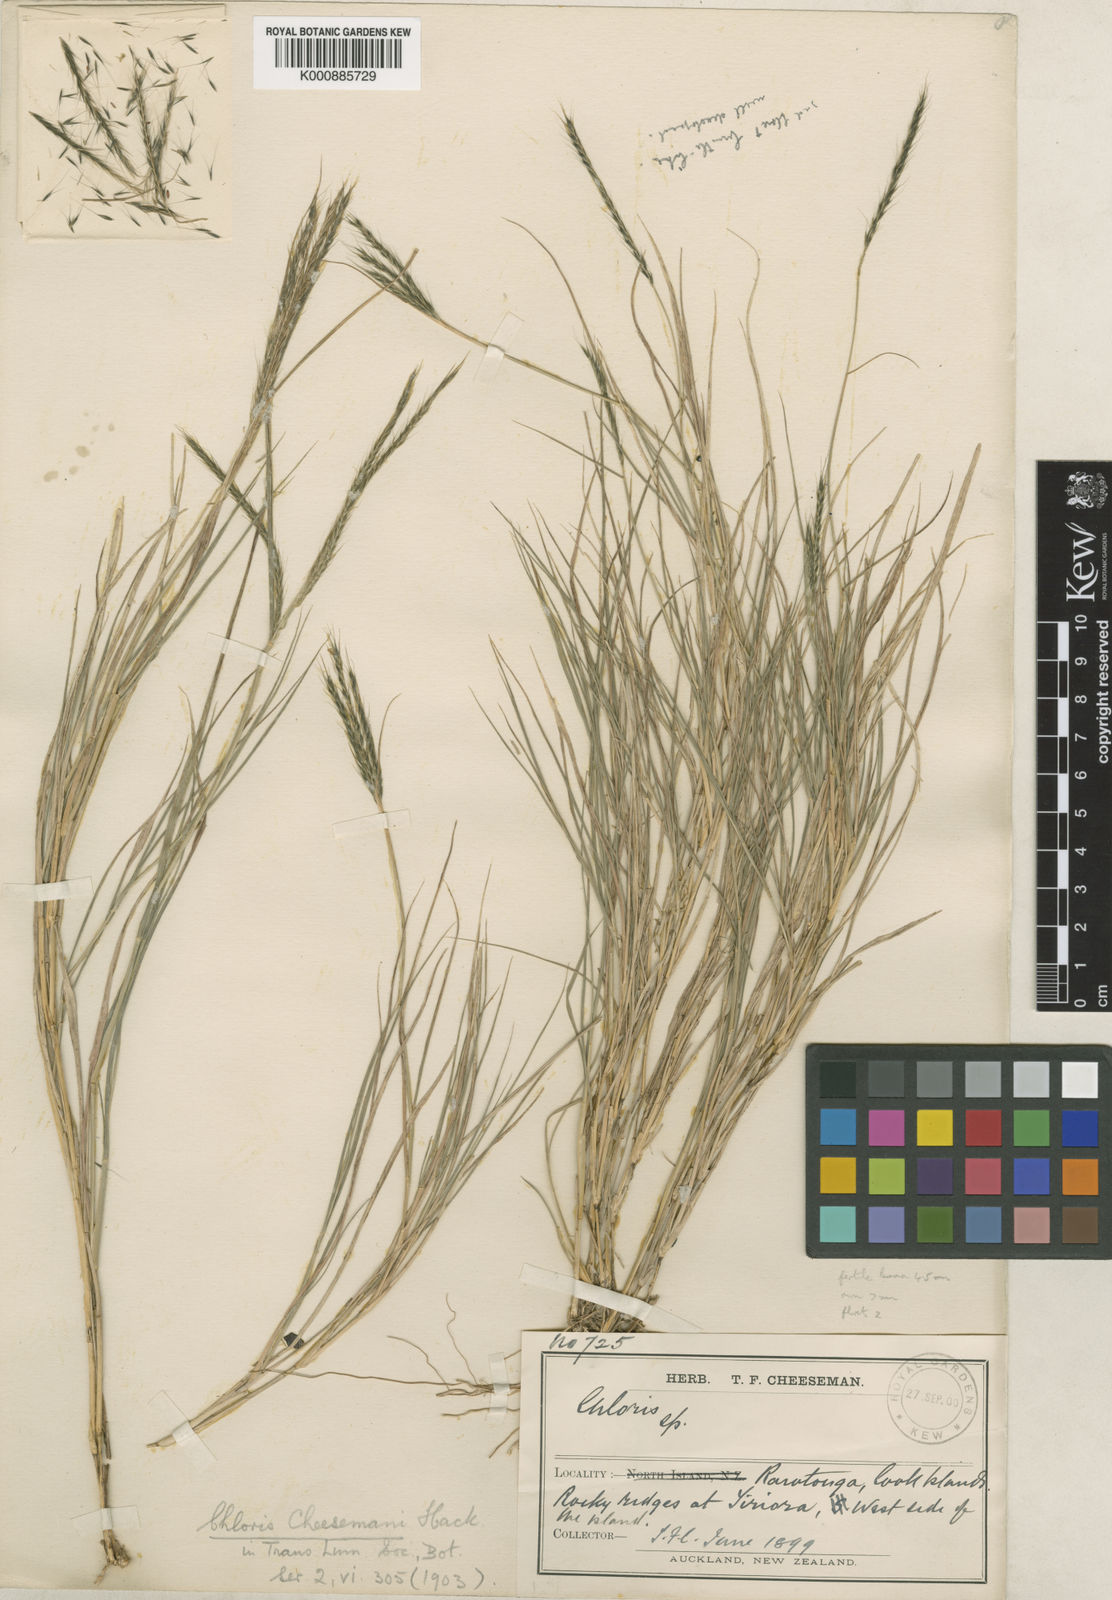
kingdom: Plantae
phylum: Tracheophyta
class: Liliopsida
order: Poales
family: Poaceae
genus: Enteropogon
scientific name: Enteropogon unispiceus
